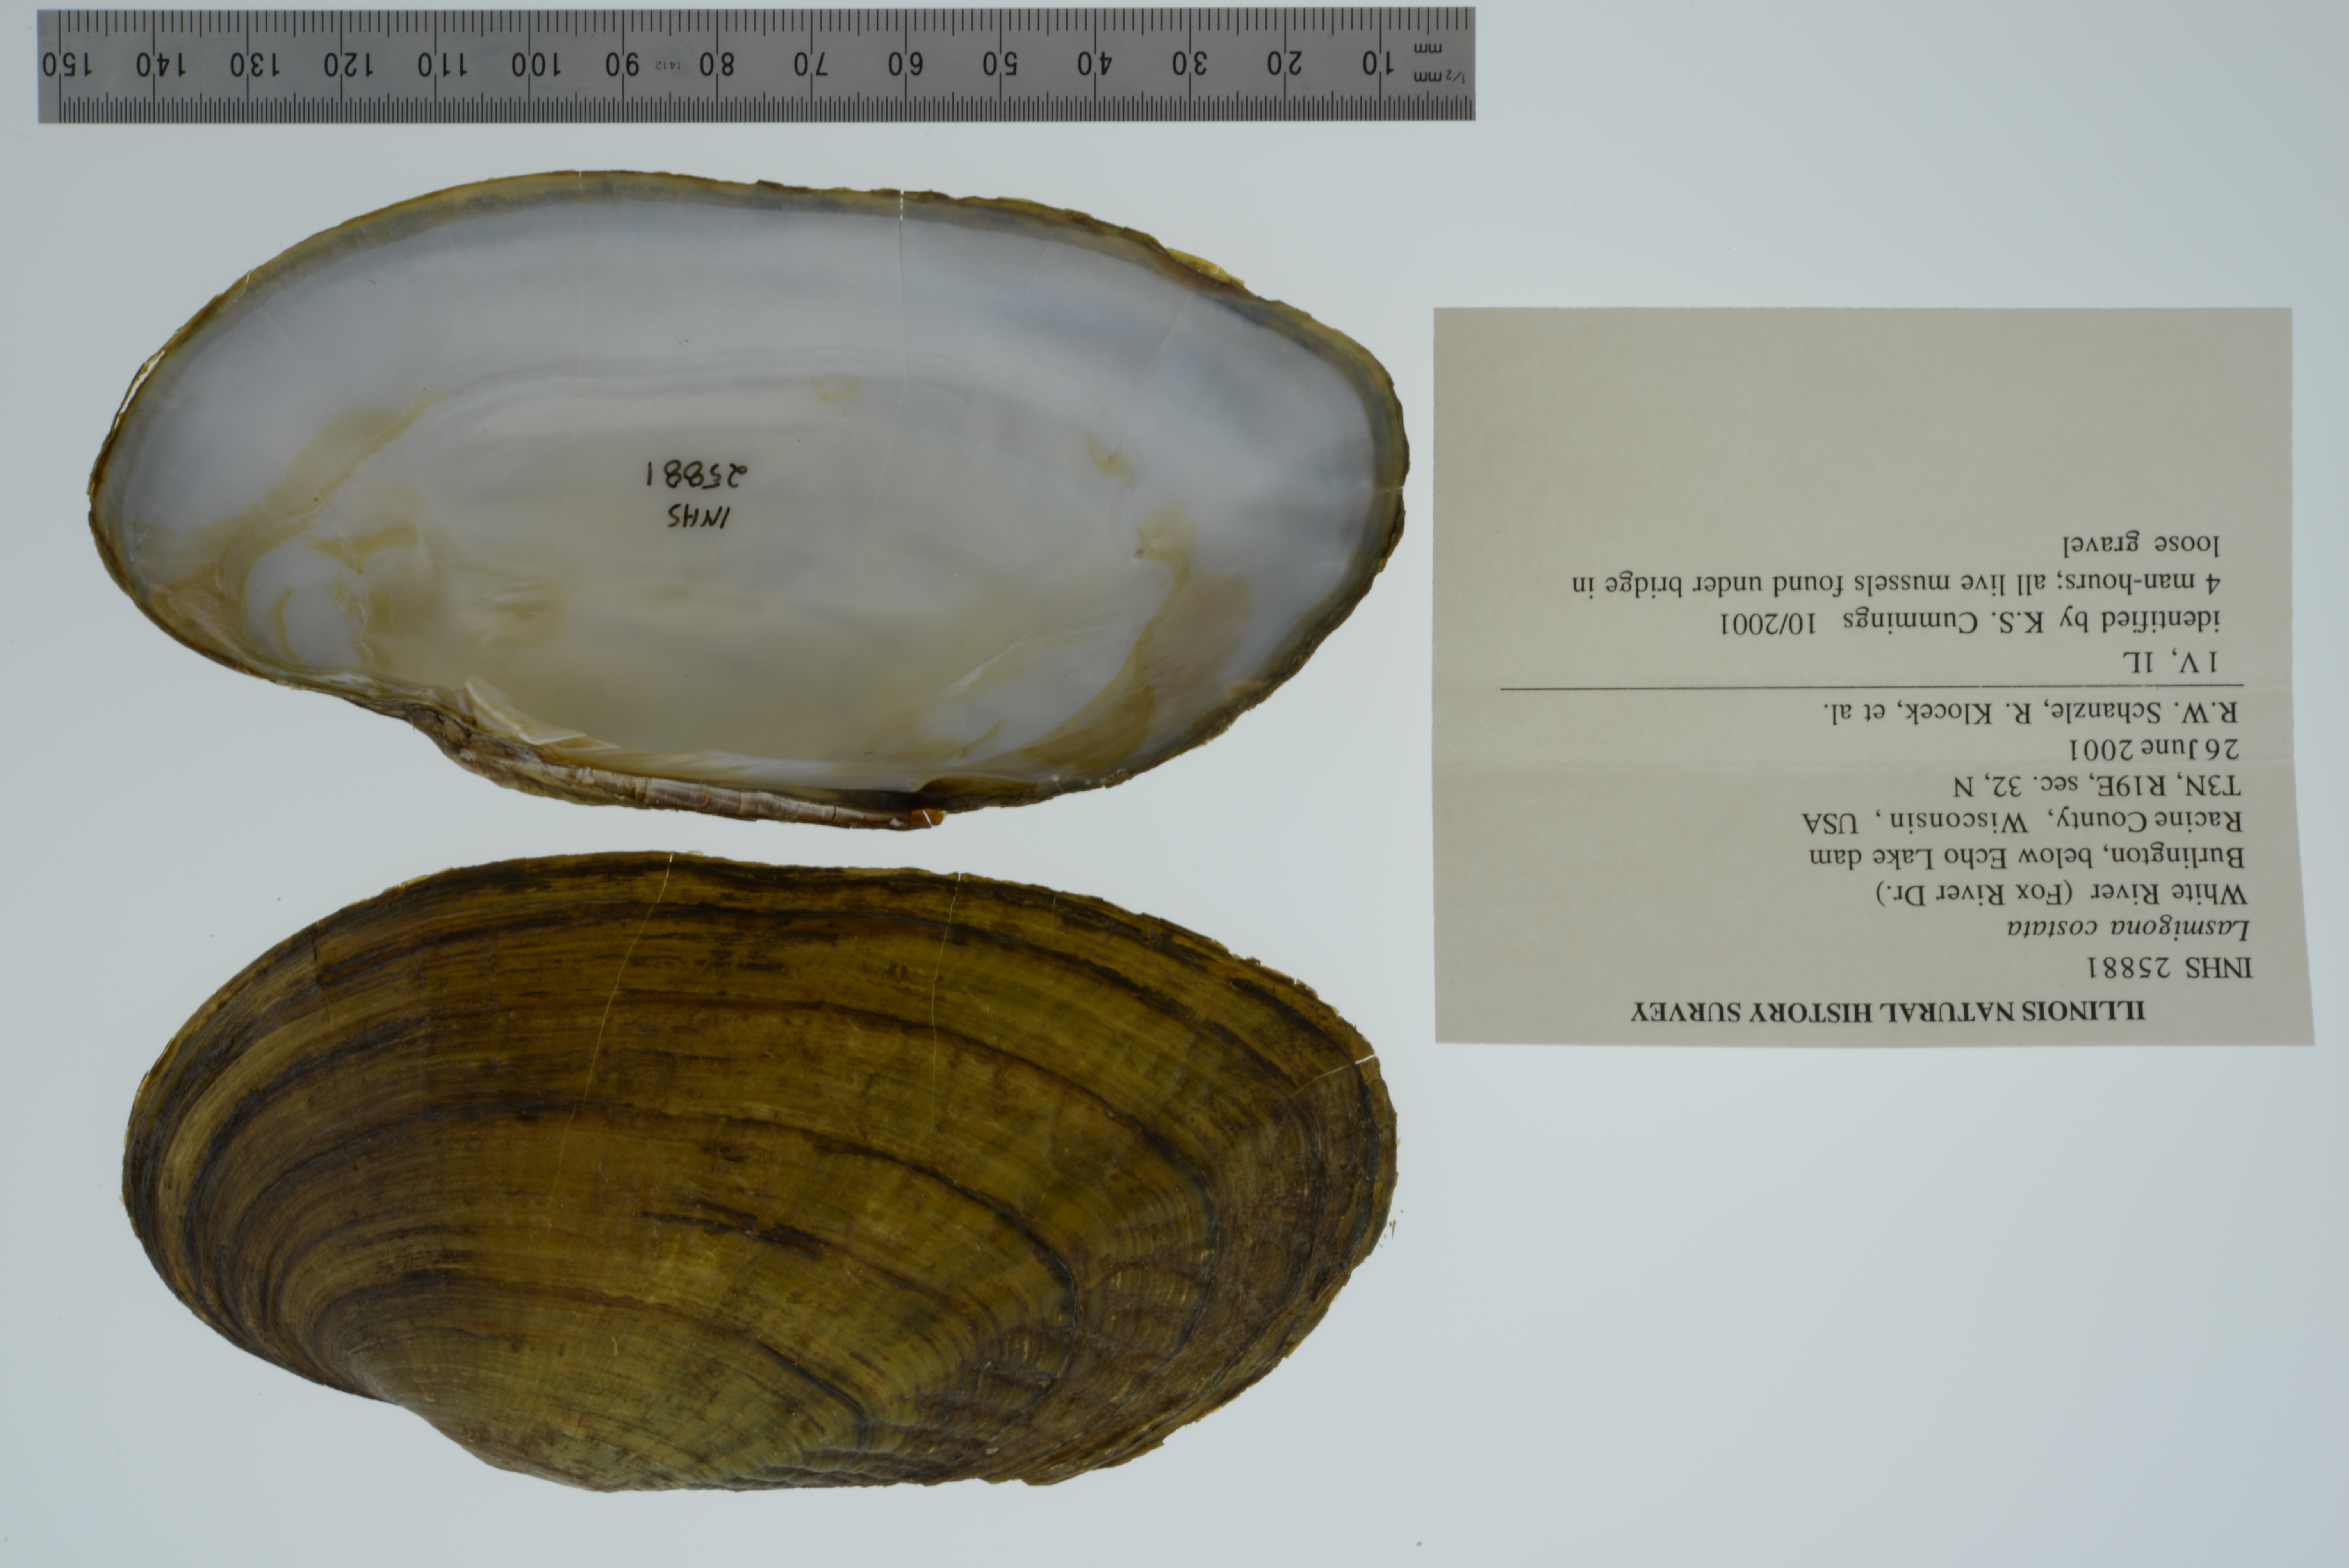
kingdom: Animalia
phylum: Mollusca
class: Bivalvia
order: Unionida
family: Unionidae
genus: Lasmigona
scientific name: Lasmigona costata
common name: Flutedshell
